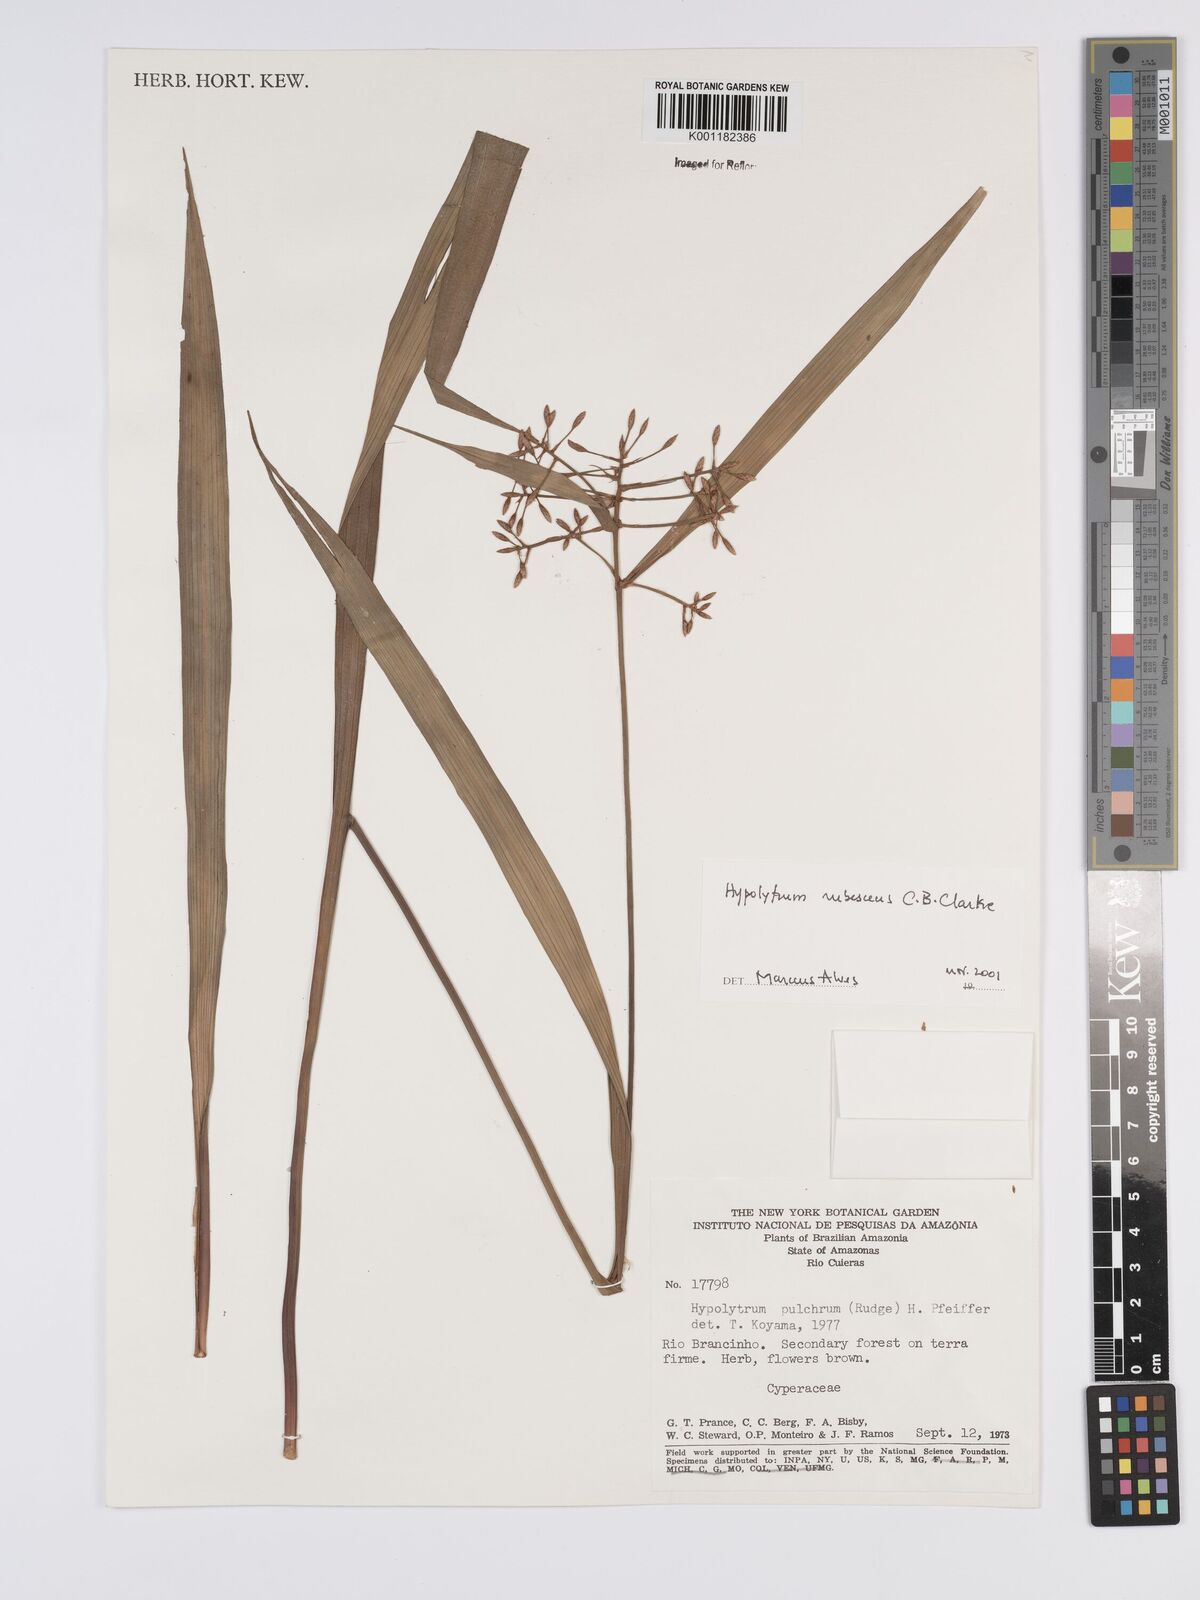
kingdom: Plantae
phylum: Tracheophyta
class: Liliopsida
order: Poales
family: Cyperaceae
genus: Hypolytrum
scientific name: Hypolytrum longifolium
